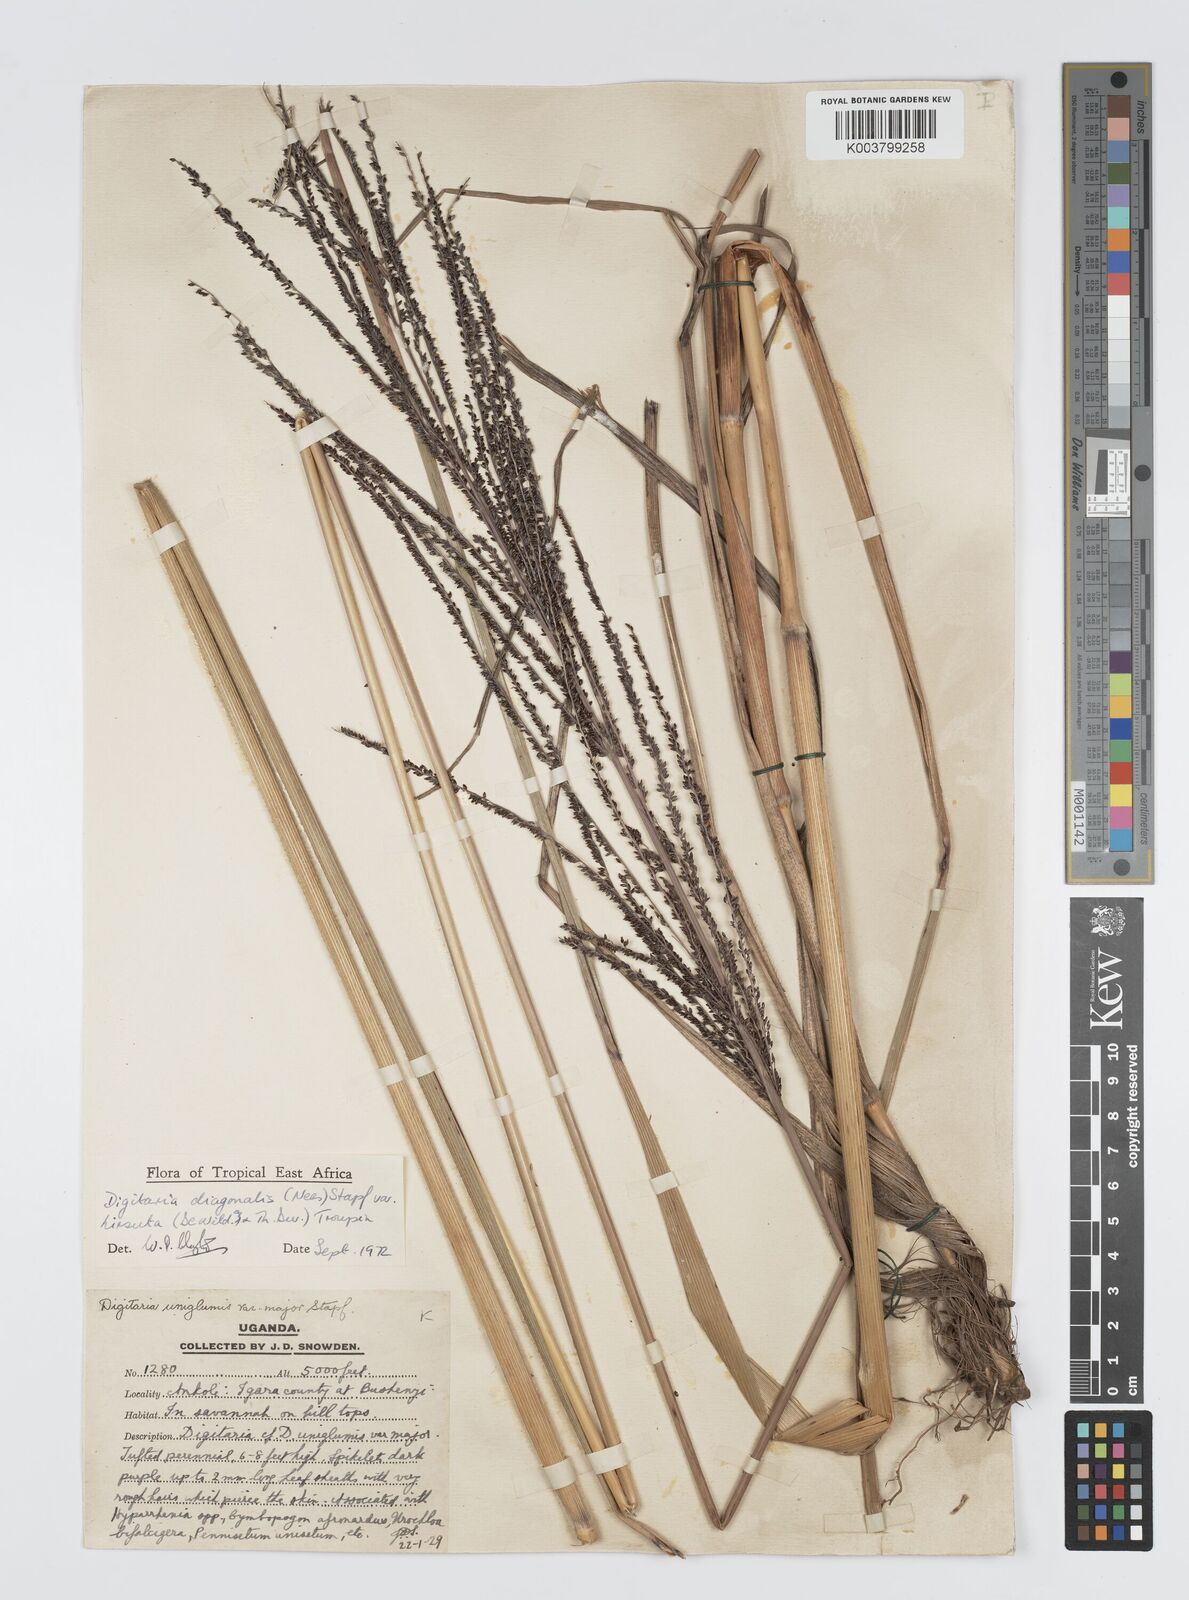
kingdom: Plantae
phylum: Tracheophyta
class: Liliopsida
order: Poales
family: Poaceae
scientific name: Poaceae
